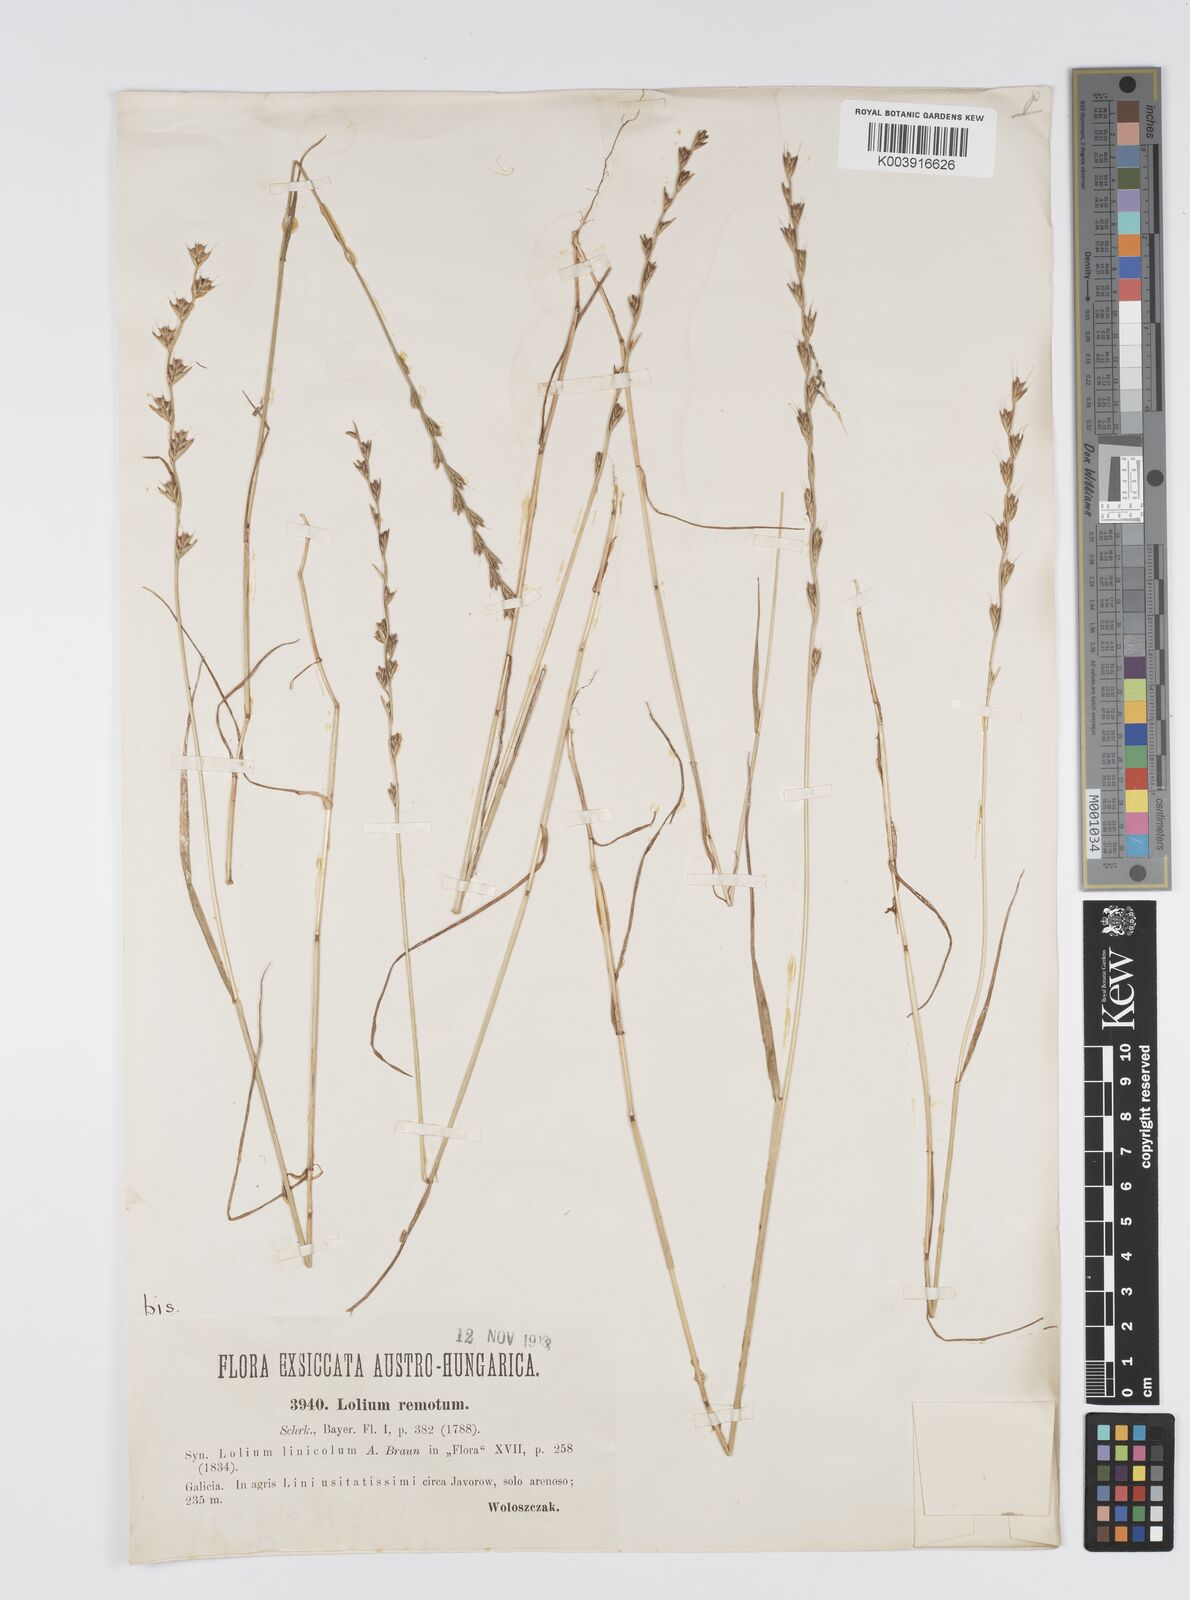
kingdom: Plantae
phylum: Tracheophyta
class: Liliopsida
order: Poales
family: Poaceae
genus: Lolium
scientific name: Lolium remotum
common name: Flaxfield rye-grass
